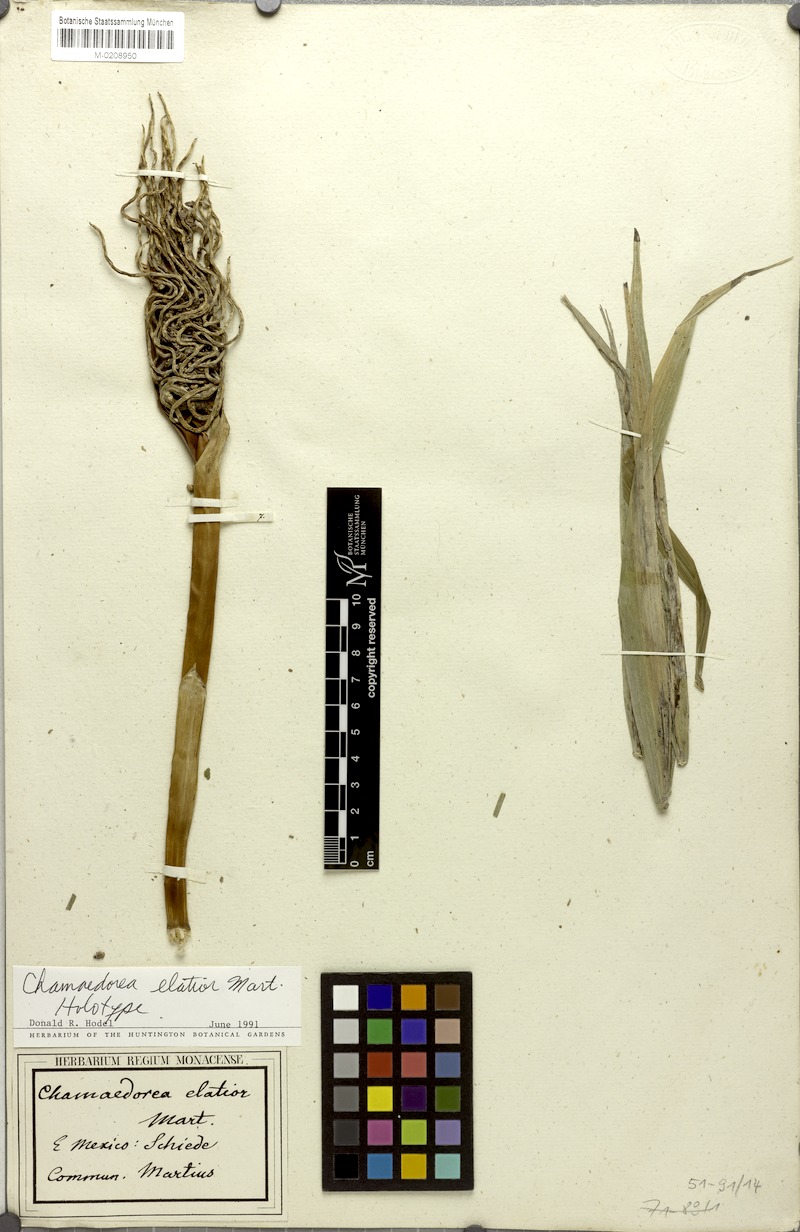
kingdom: Plantae
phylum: Tracheophyta
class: Liliopsida
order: Arecales
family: Arecaceae
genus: Chamaedorea
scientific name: Chamaedorea elatior
